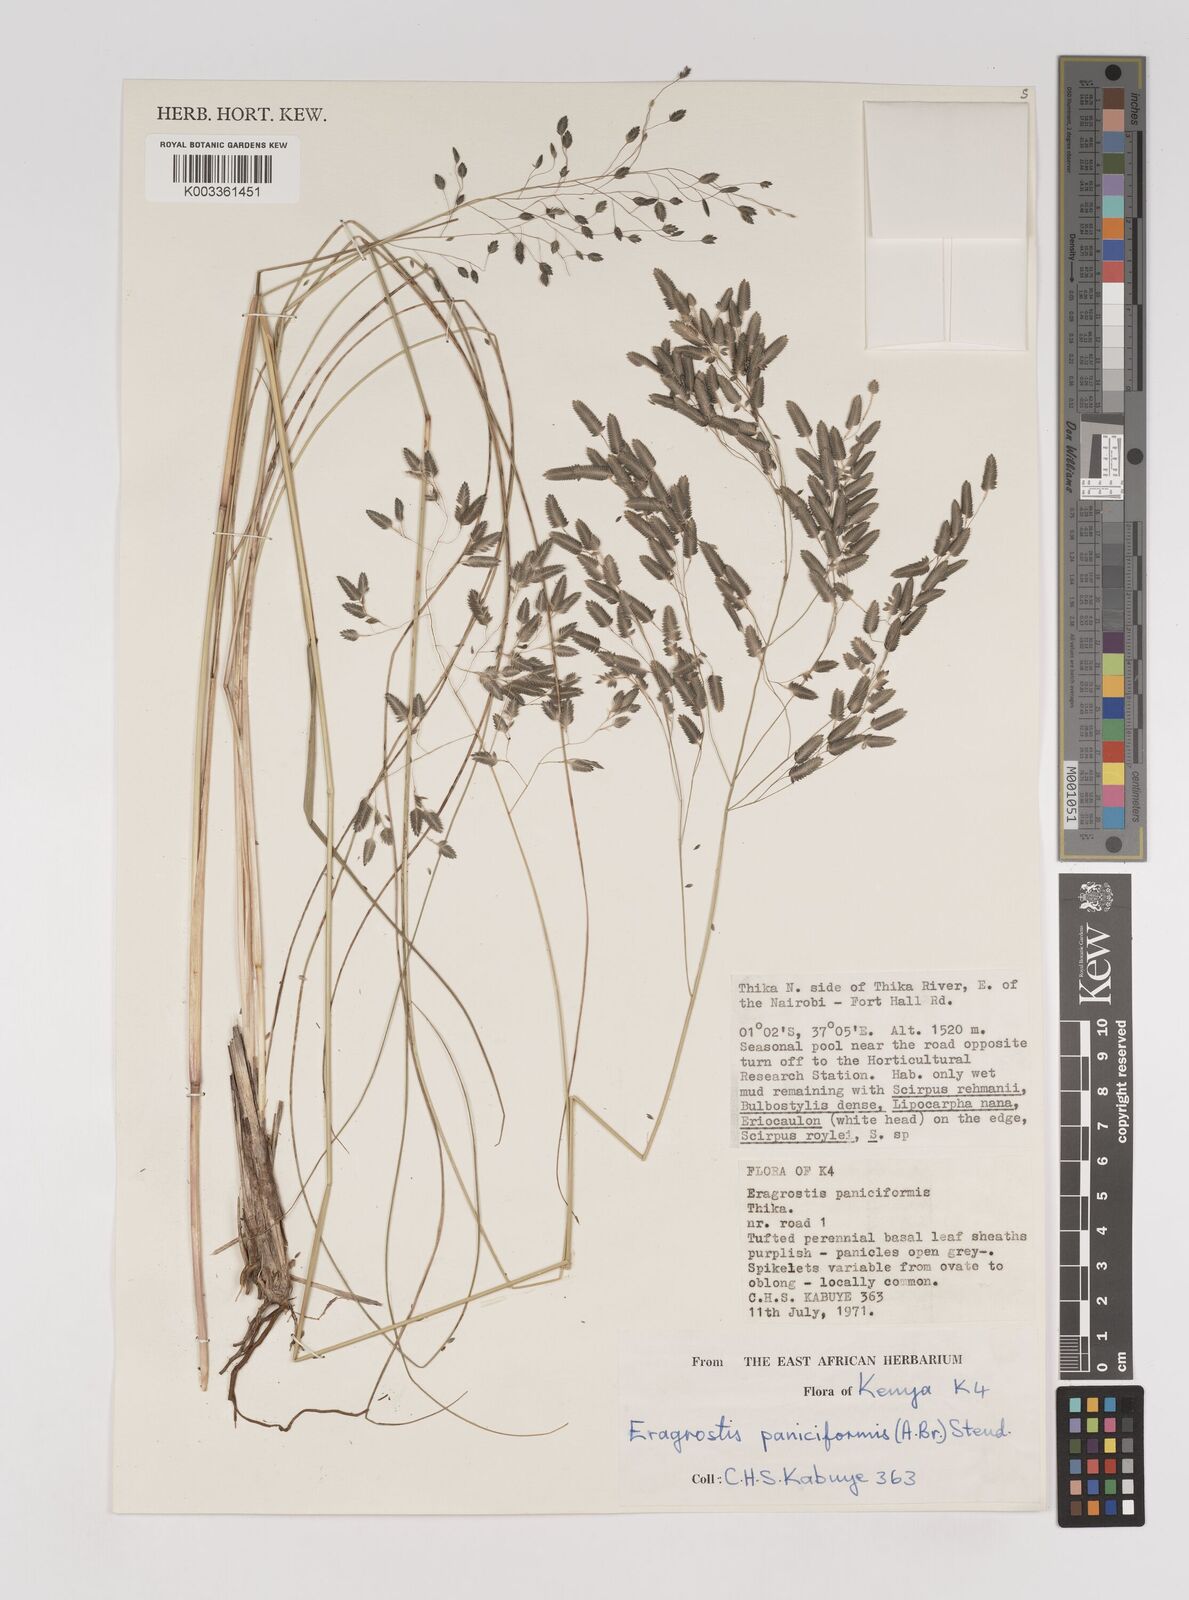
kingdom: Plantae
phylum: Tracheophyta
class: Liliopsida
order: Poales
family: Poaceae
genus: Eragrostis
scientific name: Eragrostis paniciformis
